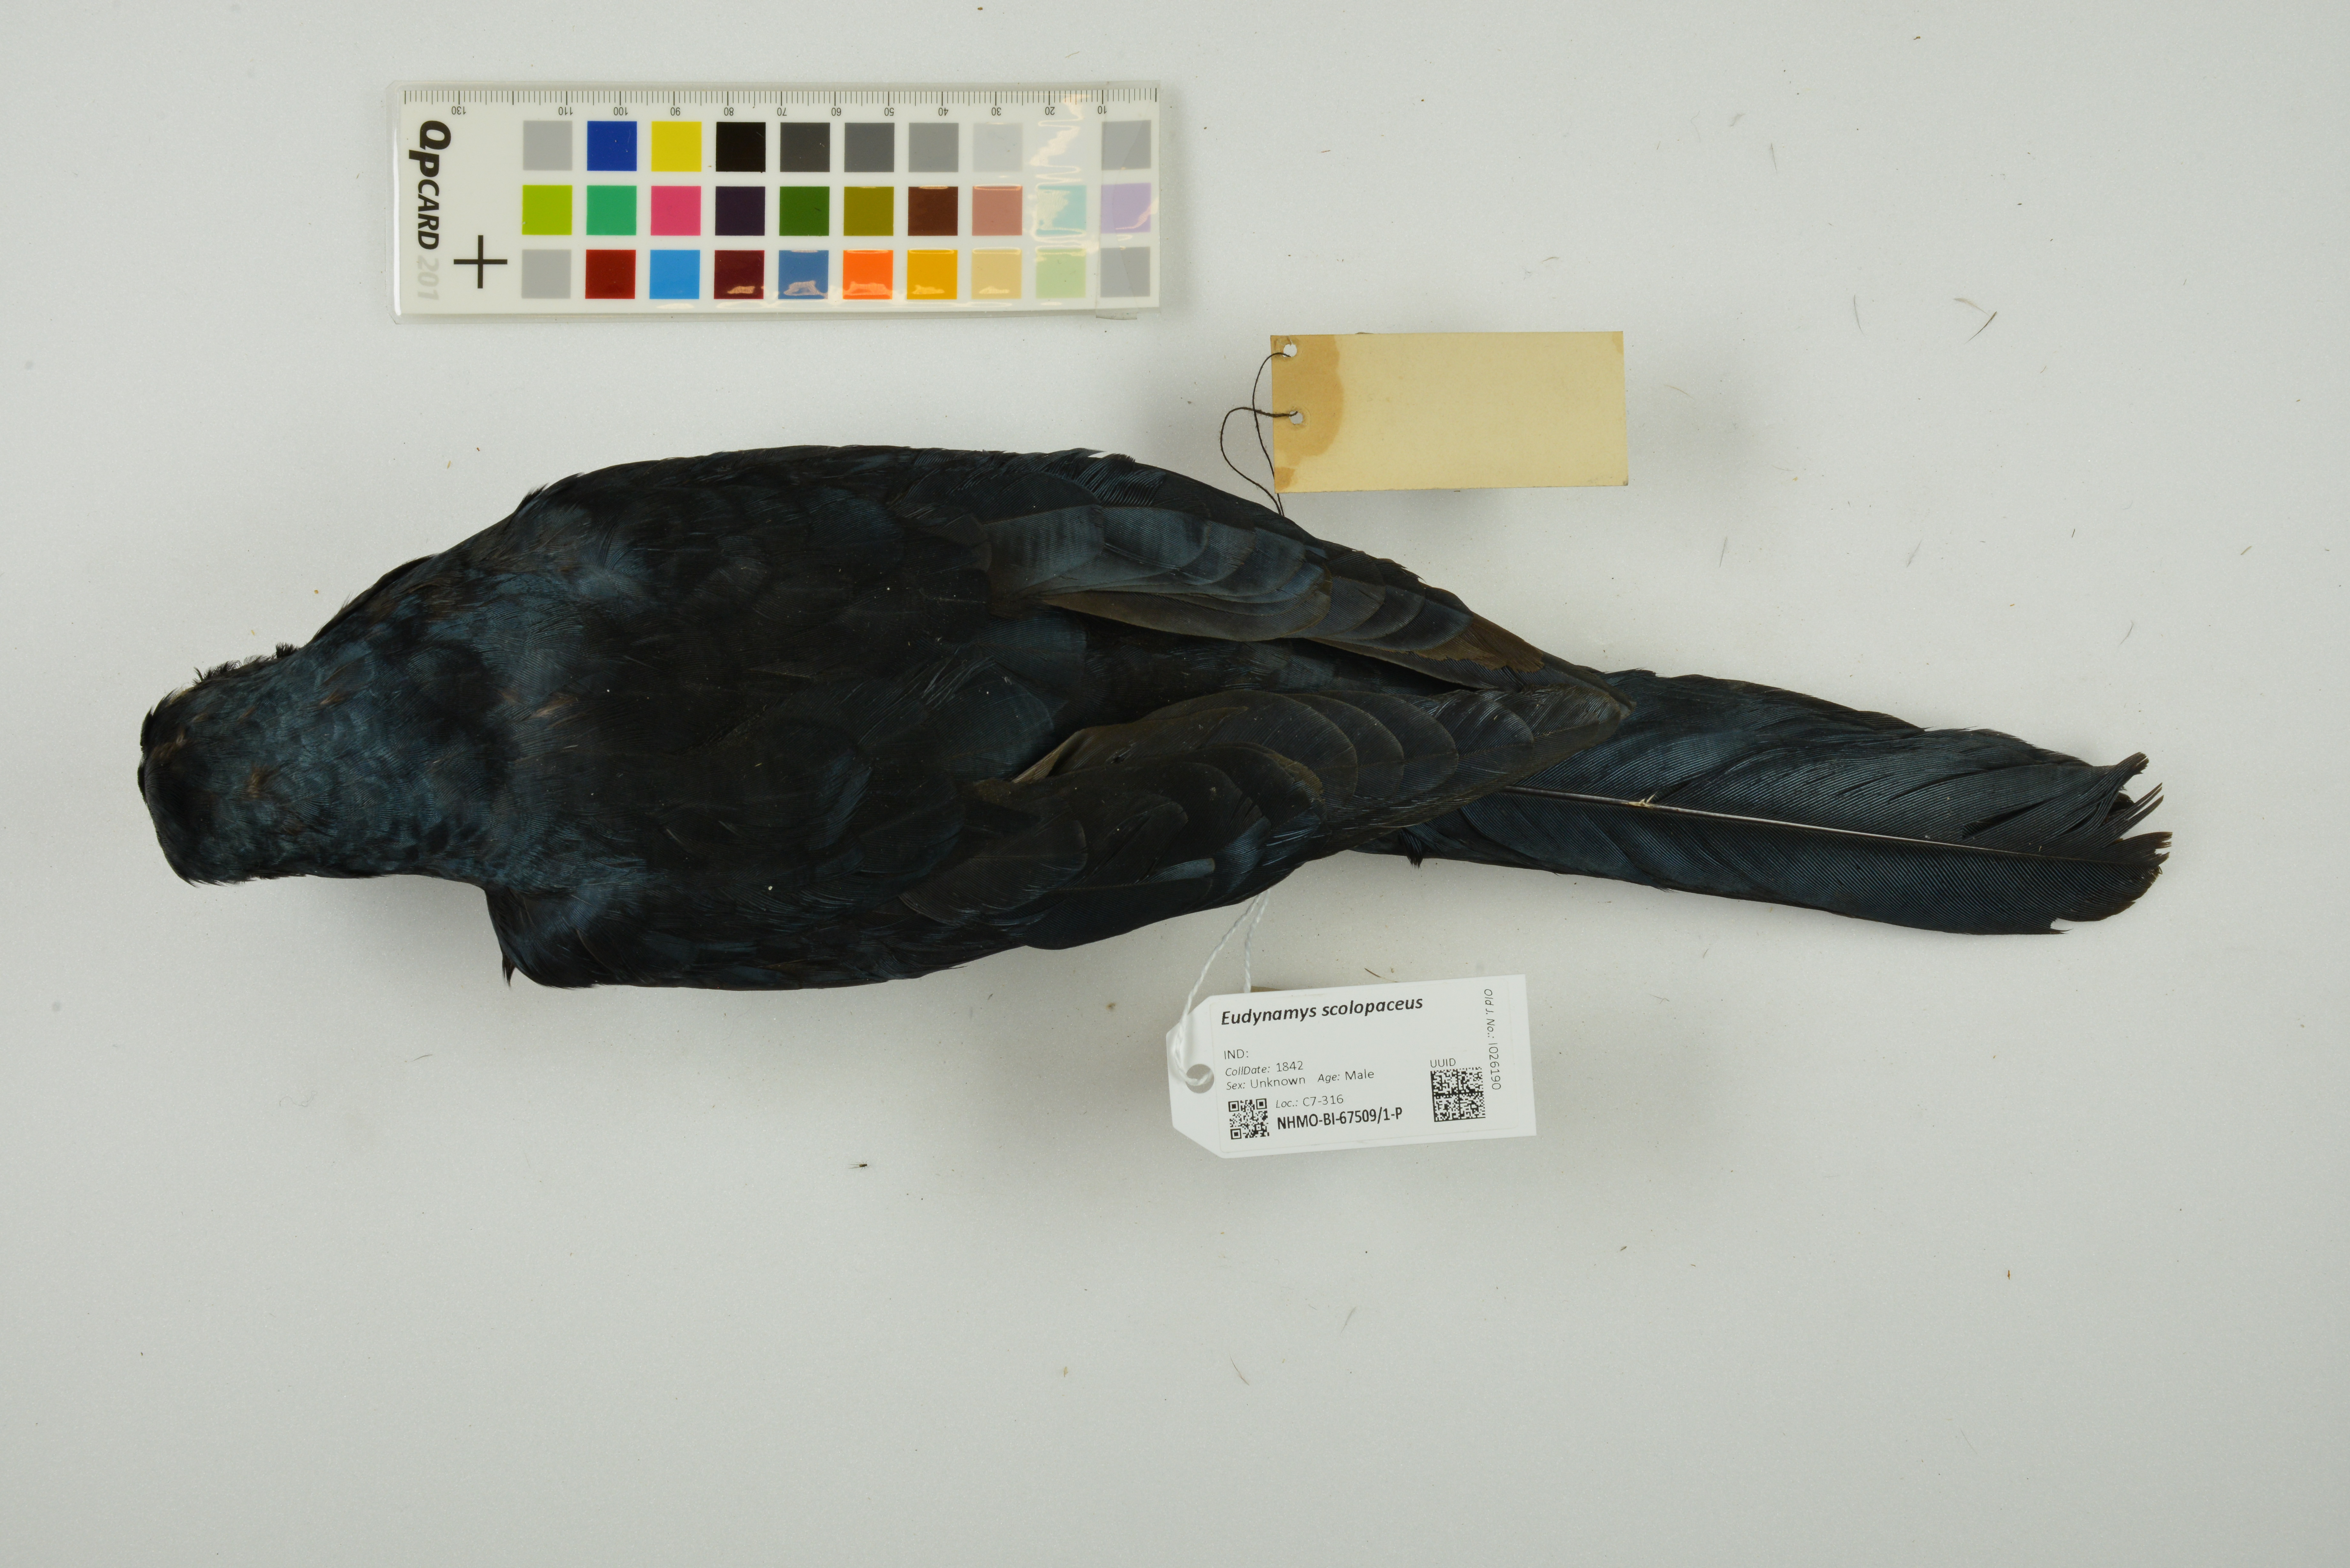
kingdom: Animalia
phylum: Chordata
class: Aves
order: Cuculiformes
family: Cuculidae
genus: Eudynamys
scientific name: Eudynamys scolopaceus
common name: Asian koel
